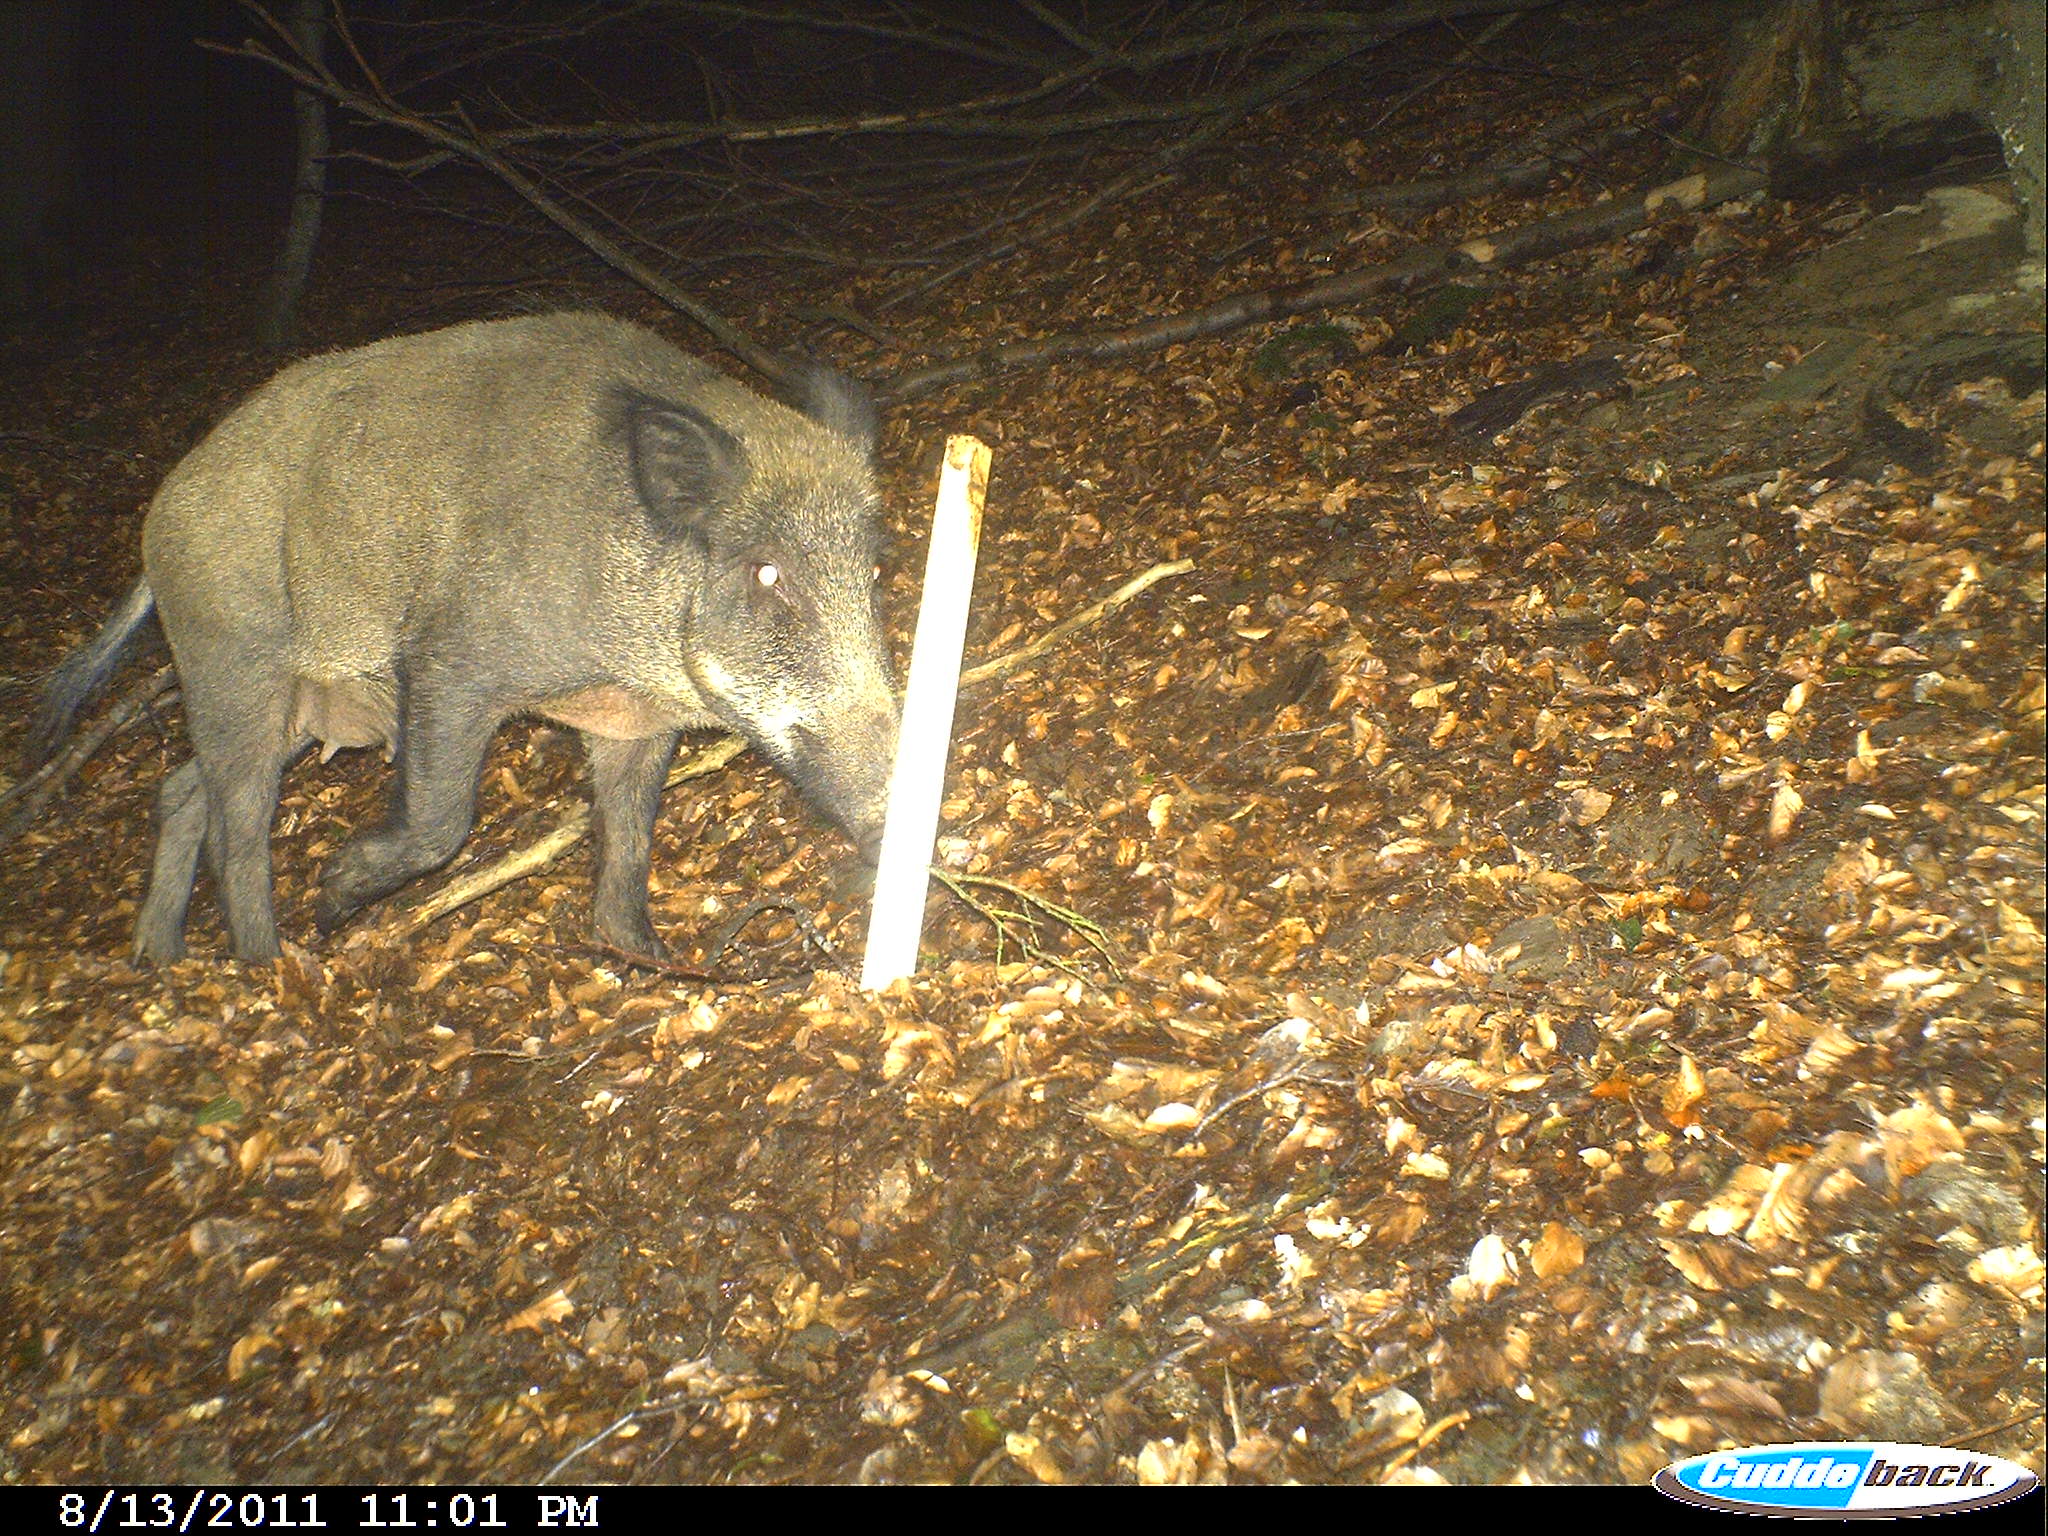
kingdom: Animalia
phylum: Chordata
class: Mammalia
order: Artiodactyla
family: Suidae
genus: Sus
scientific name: Sus scrofa
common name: Wild boar
